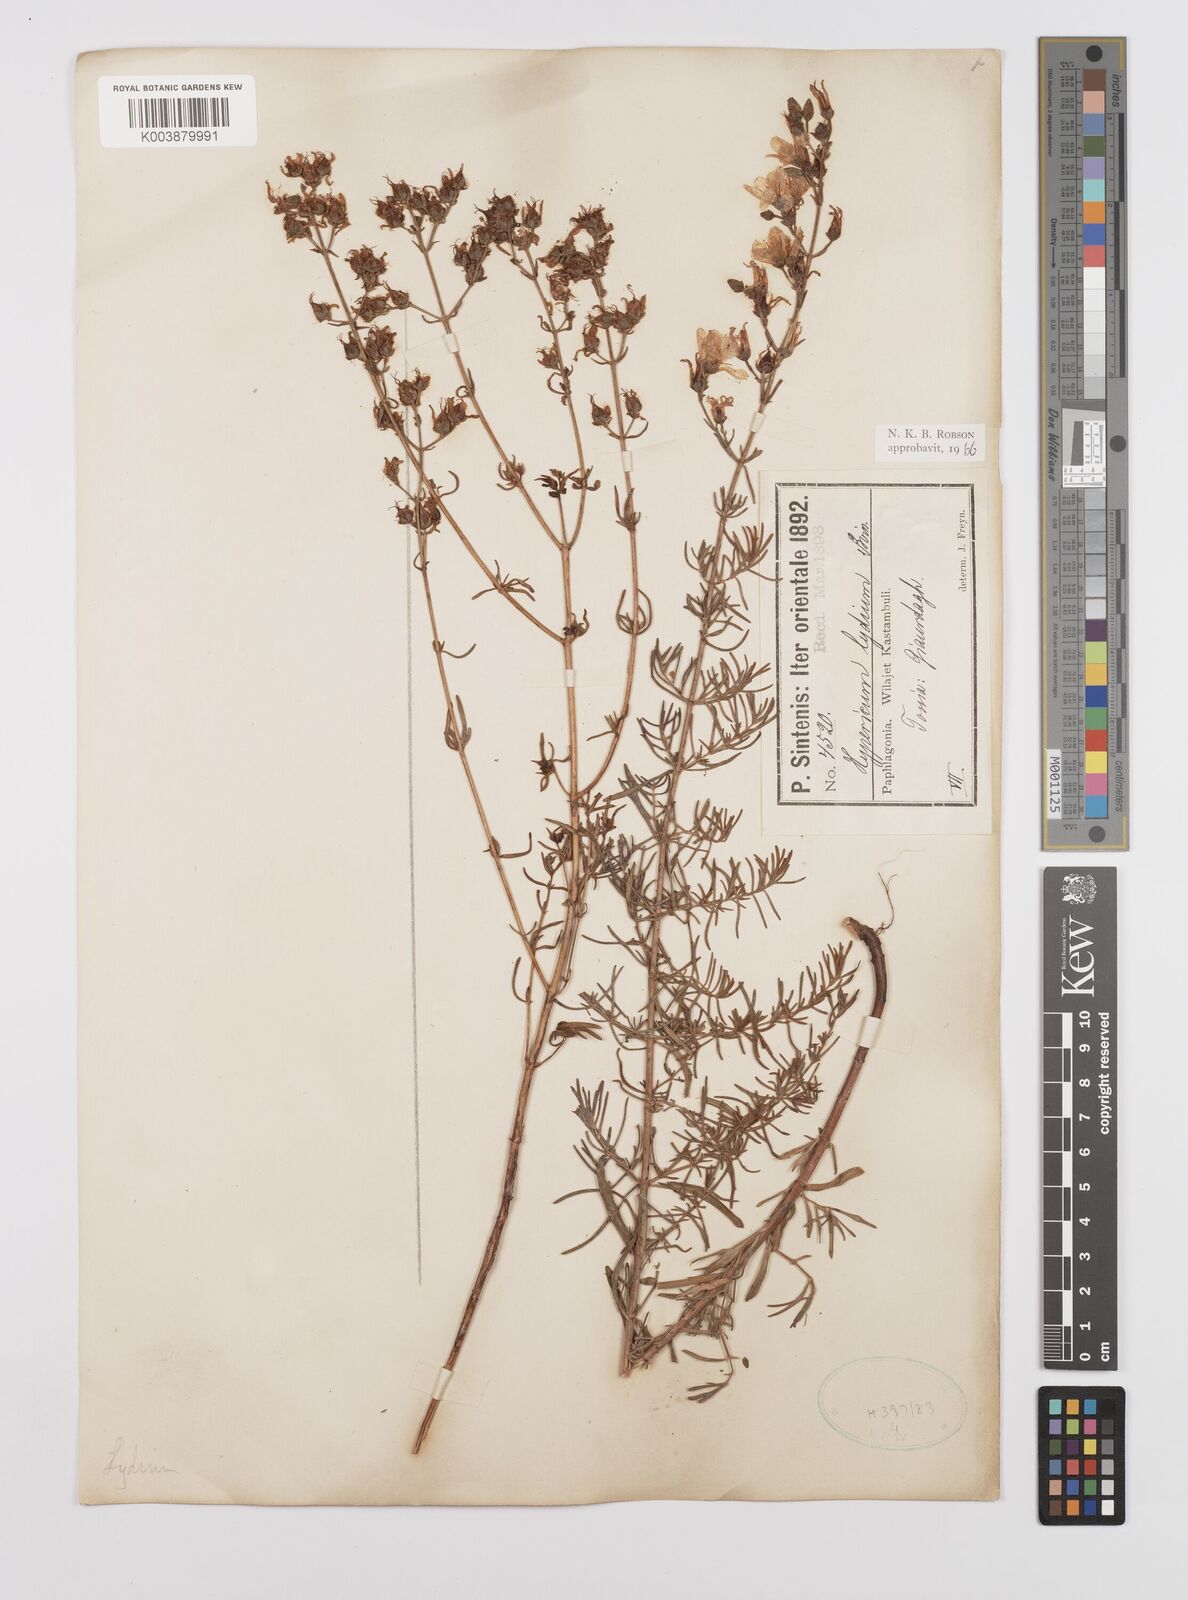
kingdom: Plantae
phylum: Tracheophyta
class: Magnoliopsida
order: Malpighiales
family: Hypericaceae
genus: Hypericum
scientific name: Hypericum lydium
